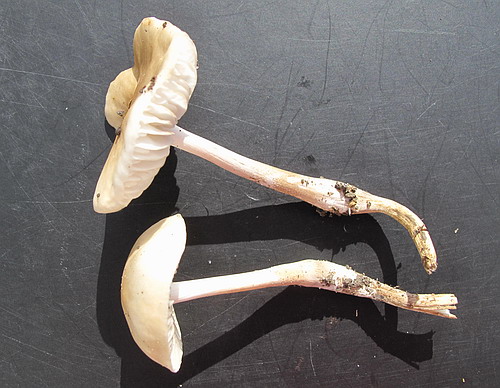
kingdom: Fungi
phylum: Basidiomycota
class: Agaricomycetes
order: Agaricales
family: Hygrophoraceae
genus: Hygrophorus
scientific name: Hygrophorus eburneus
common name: elfenbens-sneglehat
